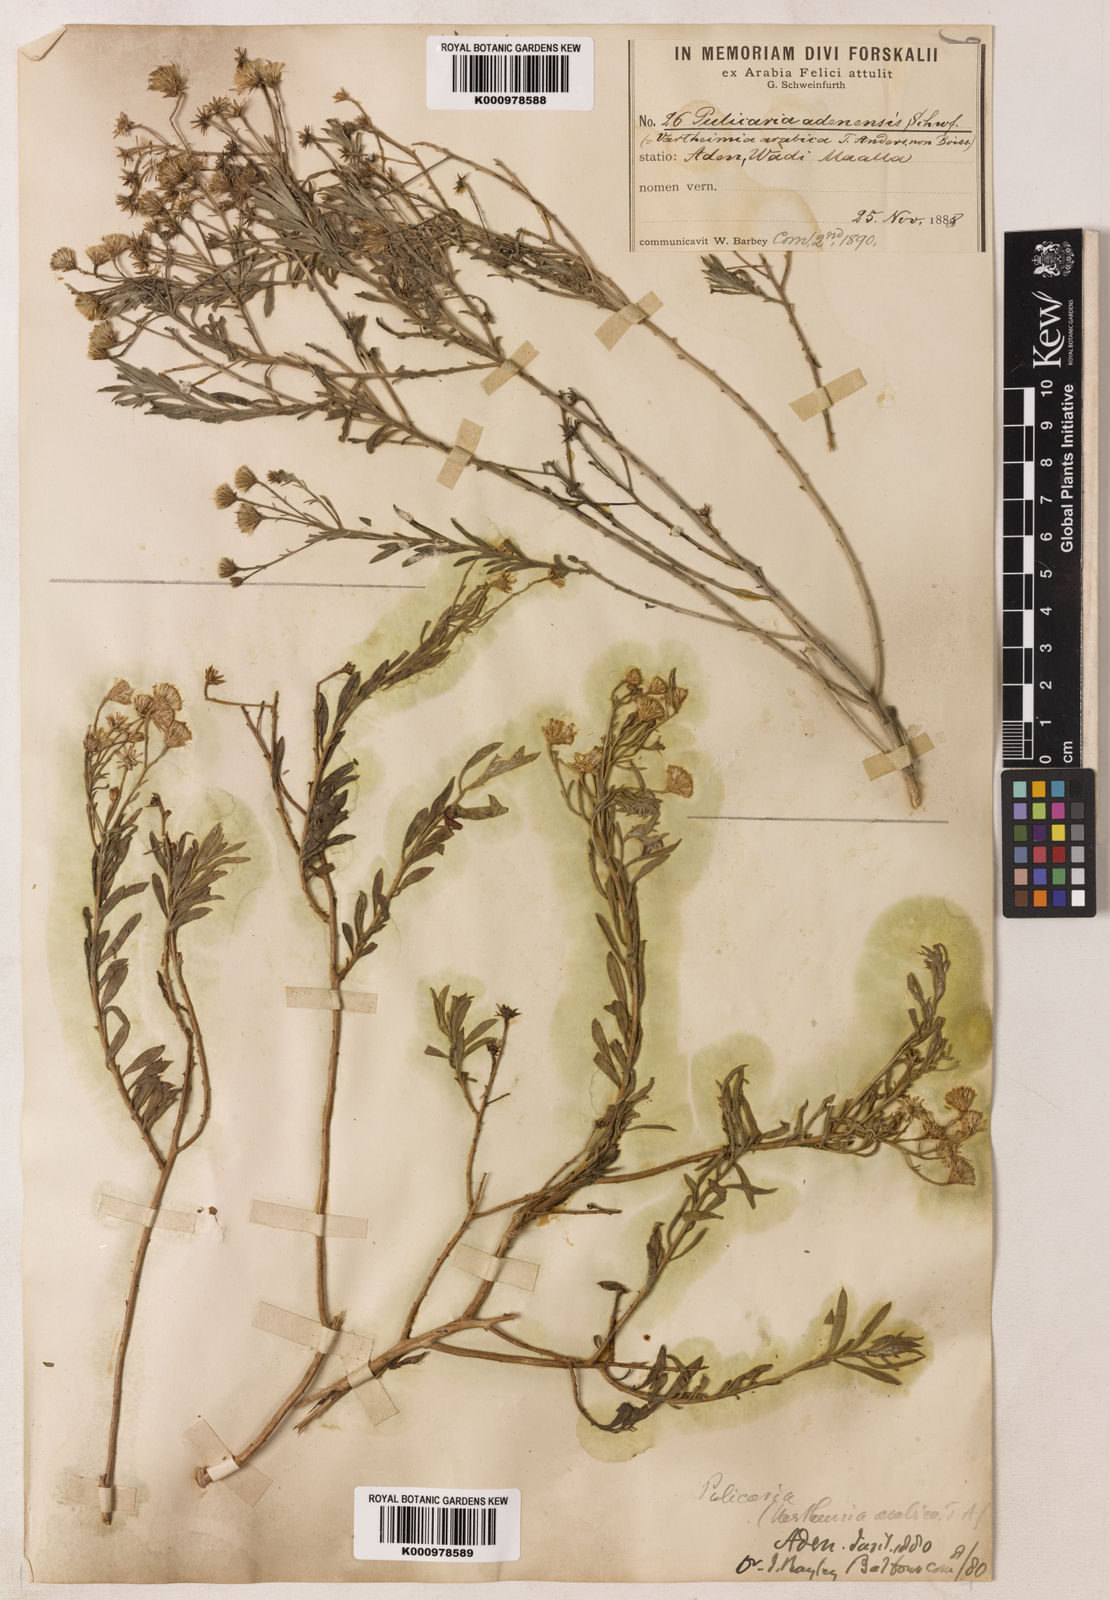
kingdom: Plantae
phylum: Tracheophyta
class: Magnoliopsida
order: Asterales
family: Asteraceae
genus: Pulicaria
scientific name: Pulicaria
